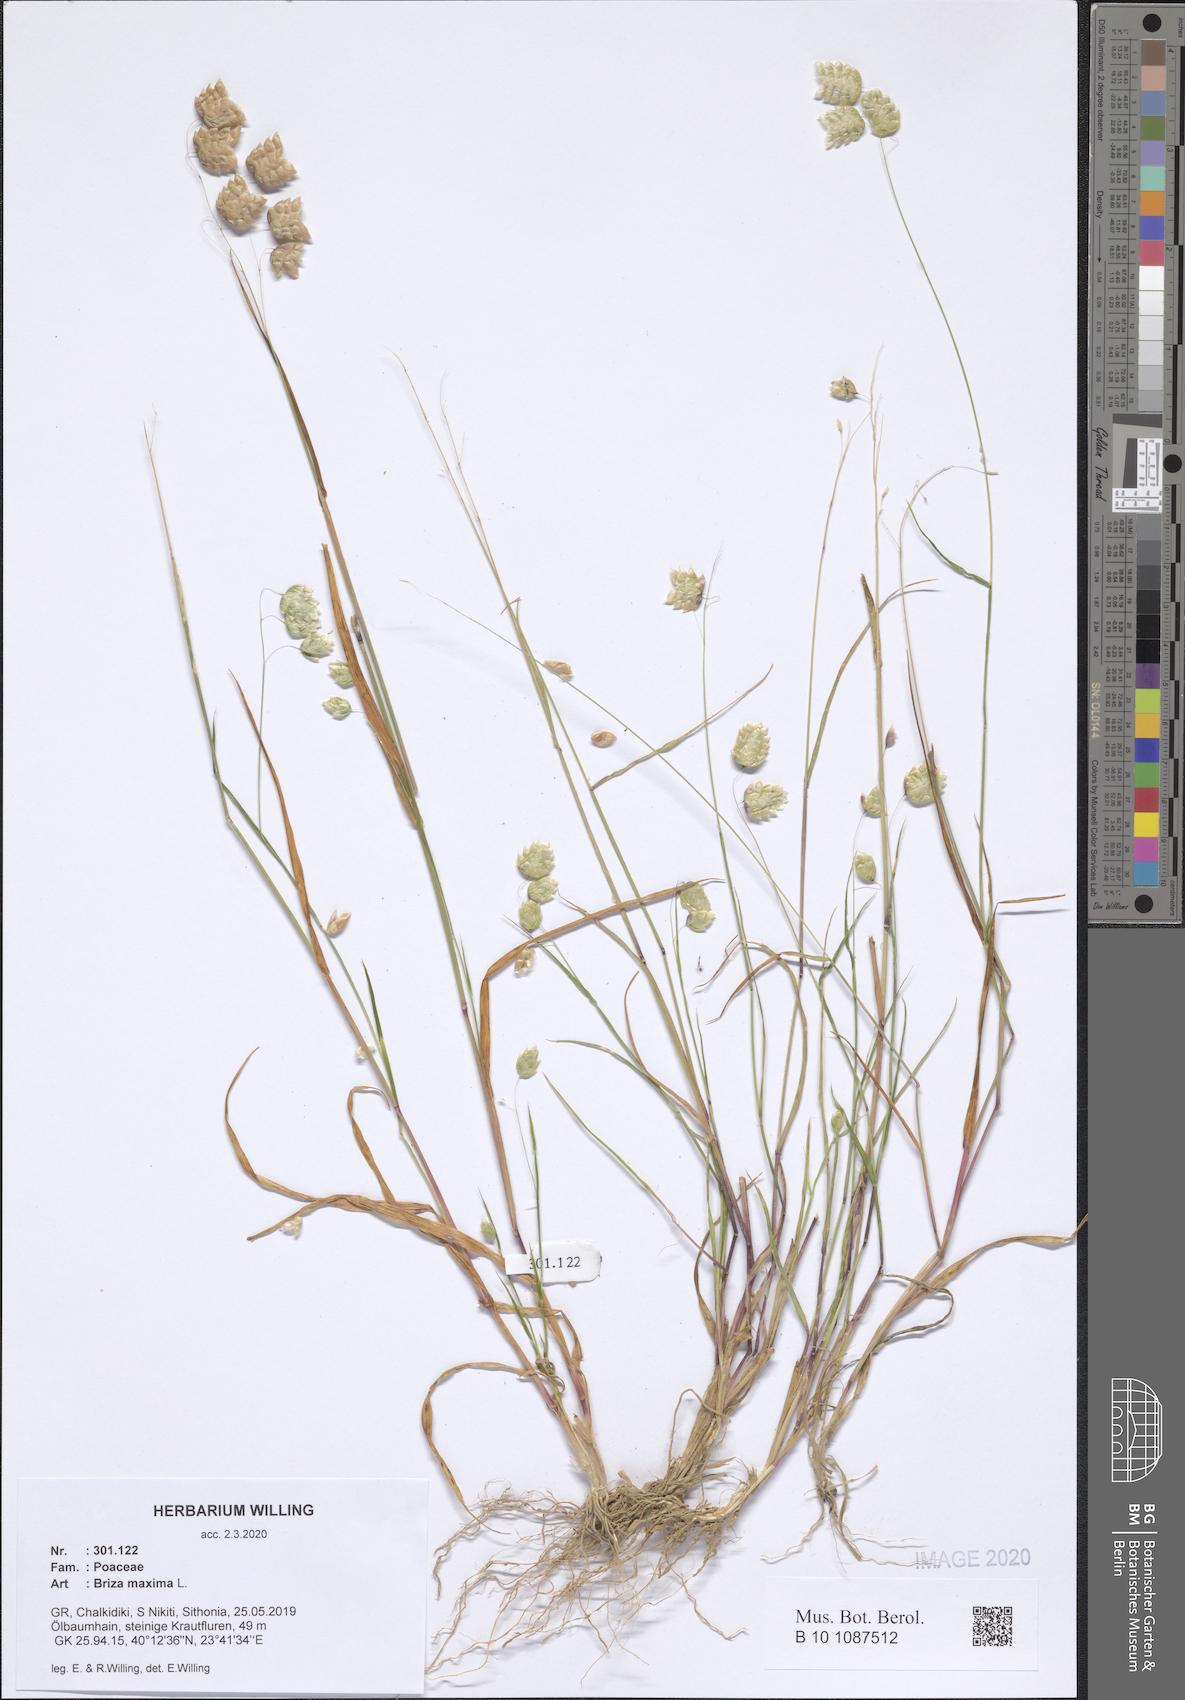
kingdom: Plantae
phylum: Tracheophyta
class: Liliopsida
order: Poales
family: Poaceae
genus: Briza
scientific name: Briza maxima
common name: Big quakinggrass
